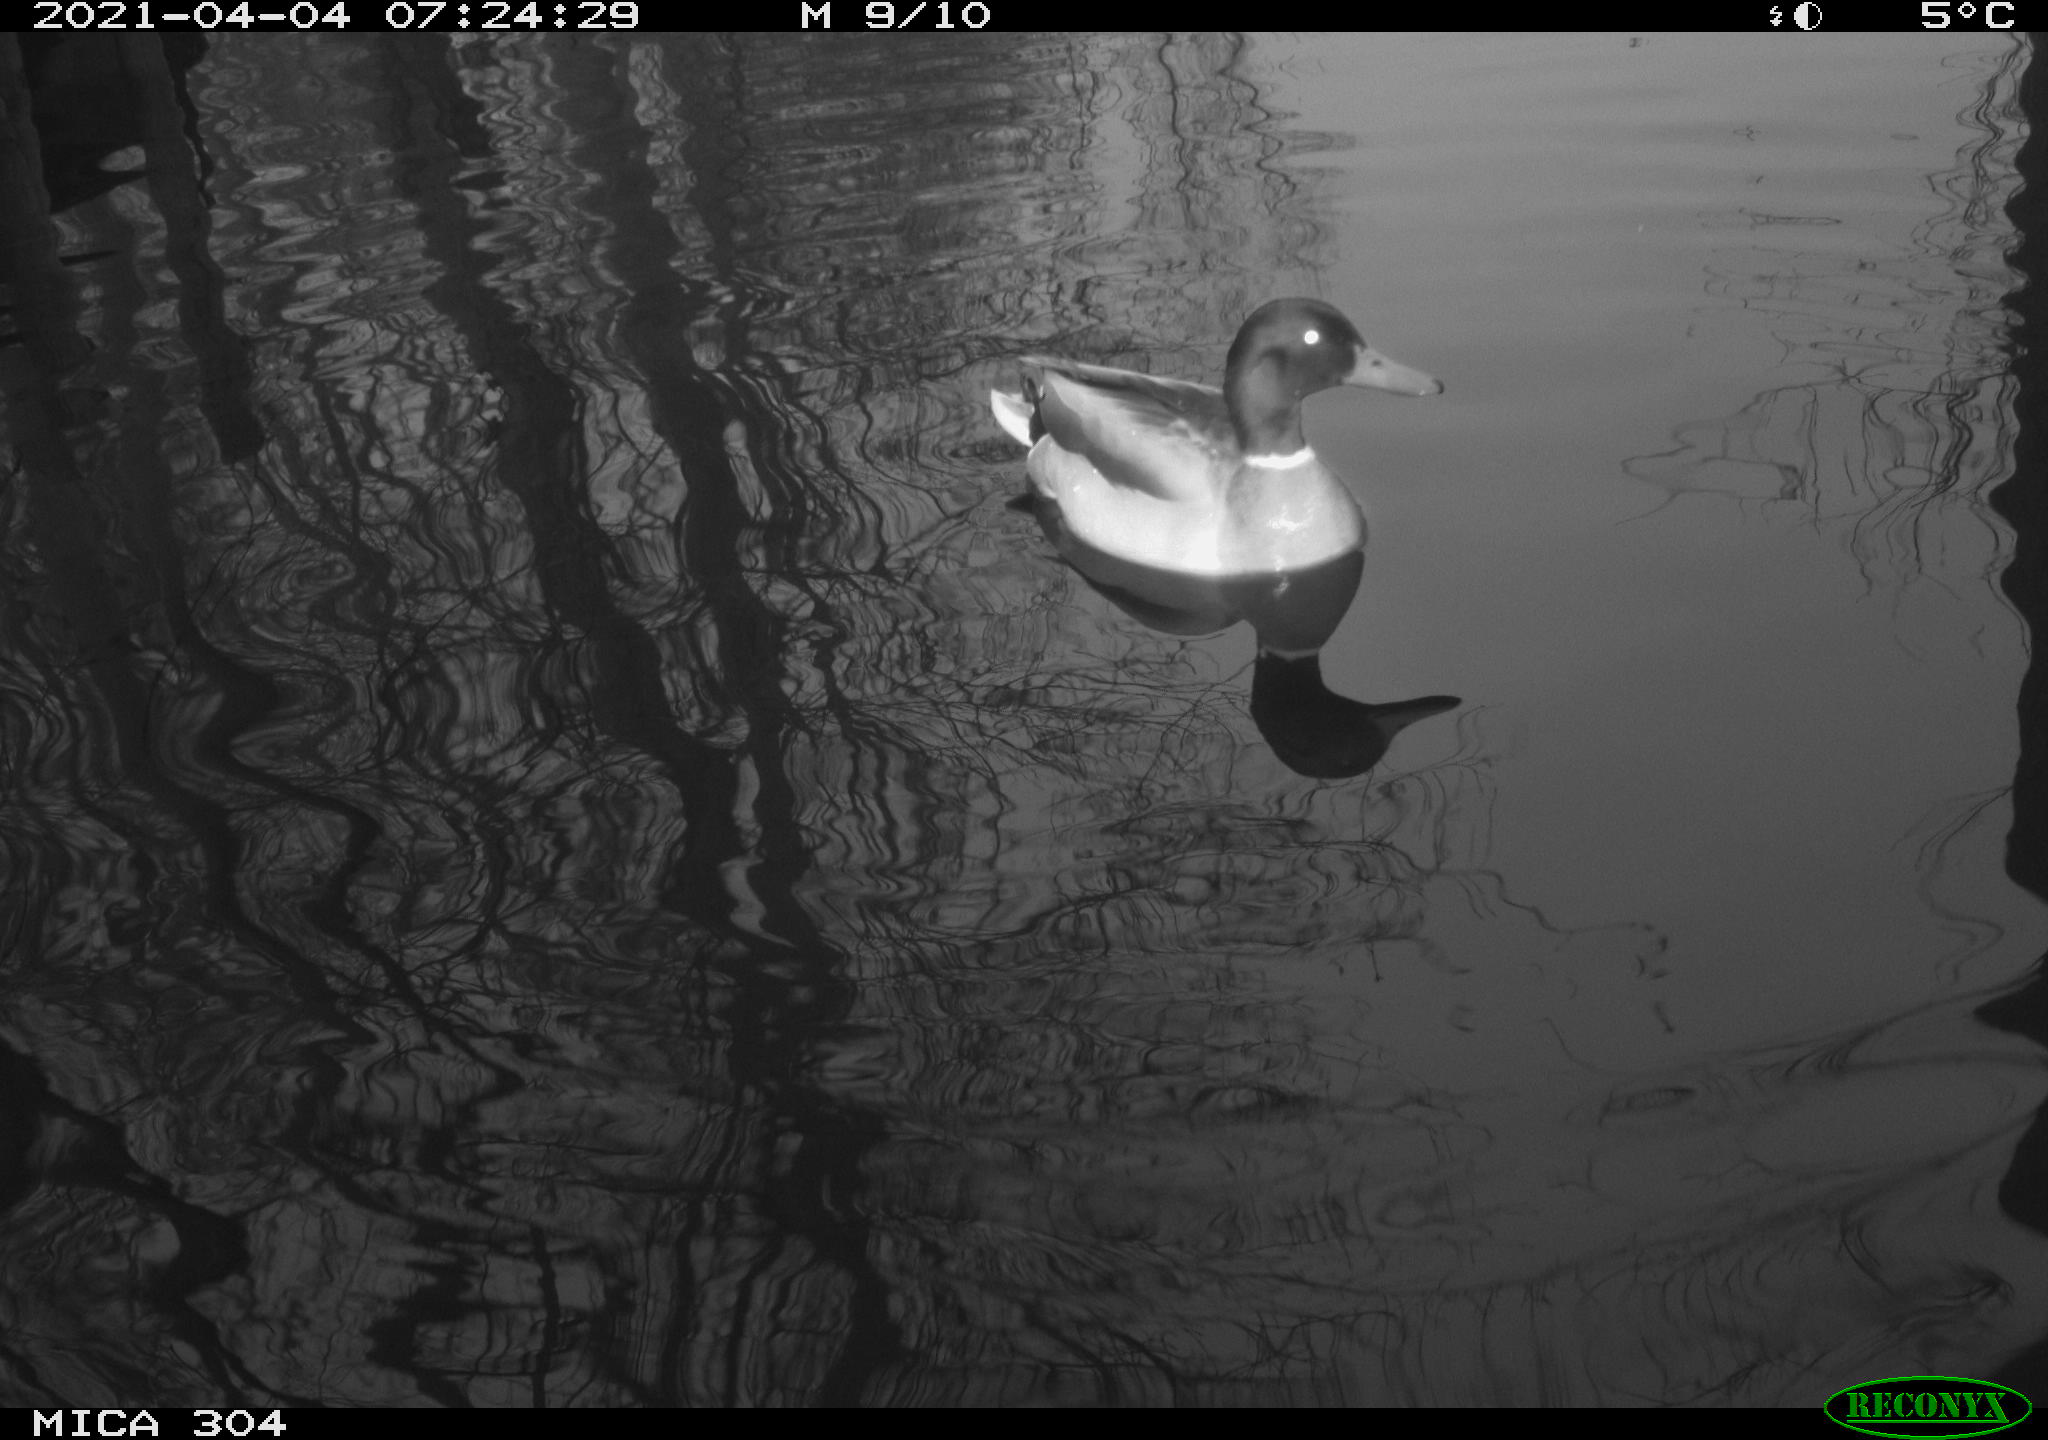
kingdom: Animalia
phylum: Chordata
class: Aves
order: Anseriformes
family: Anatidae
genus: Anas
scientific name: Anas
